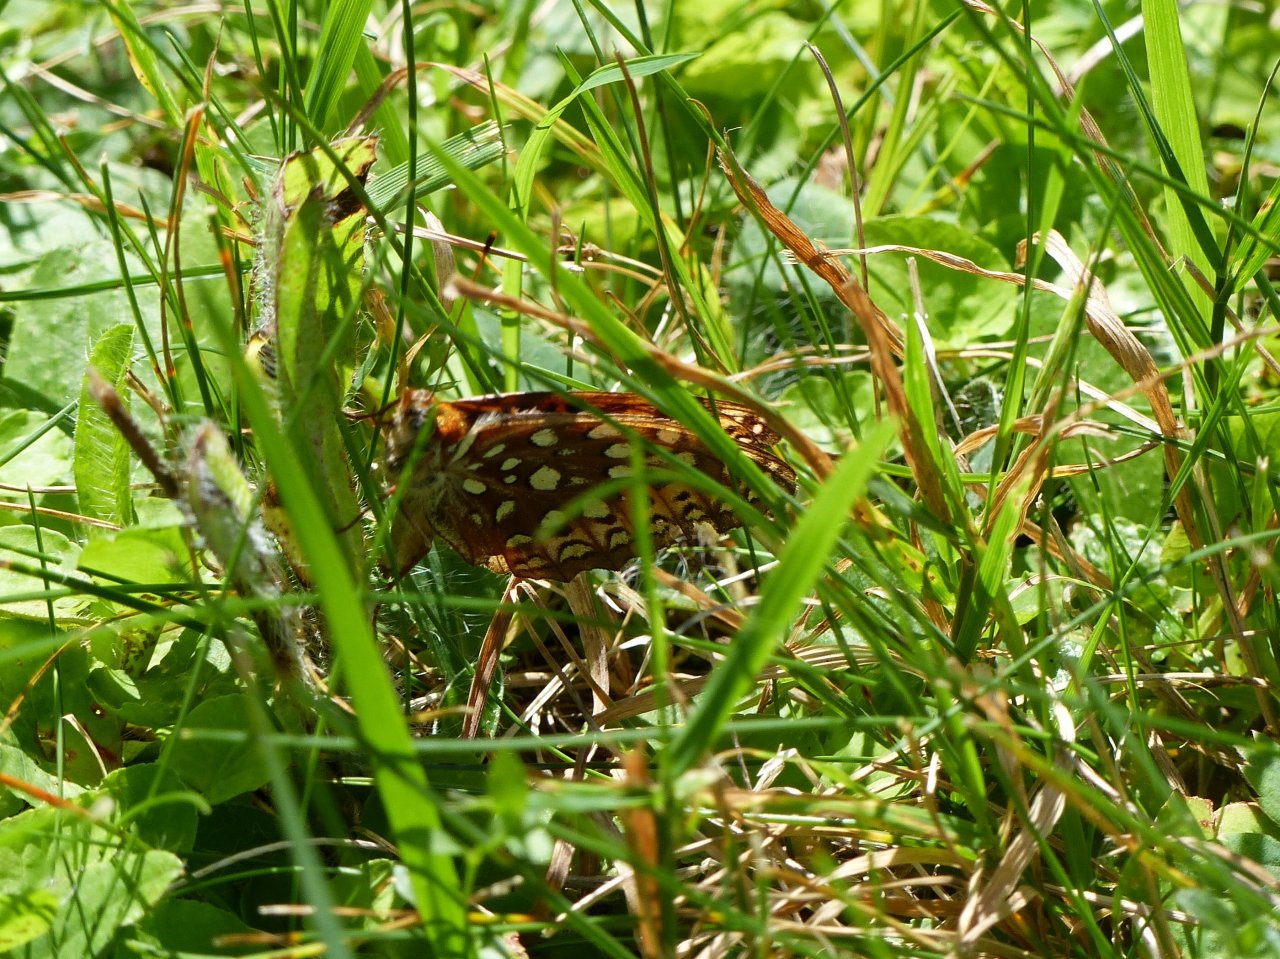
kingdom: Animalia
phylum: Arthropoda
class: Insecta
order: Lepidoptera
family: Nymphalidae
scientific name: Nymphalidae
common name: Brushfoots
